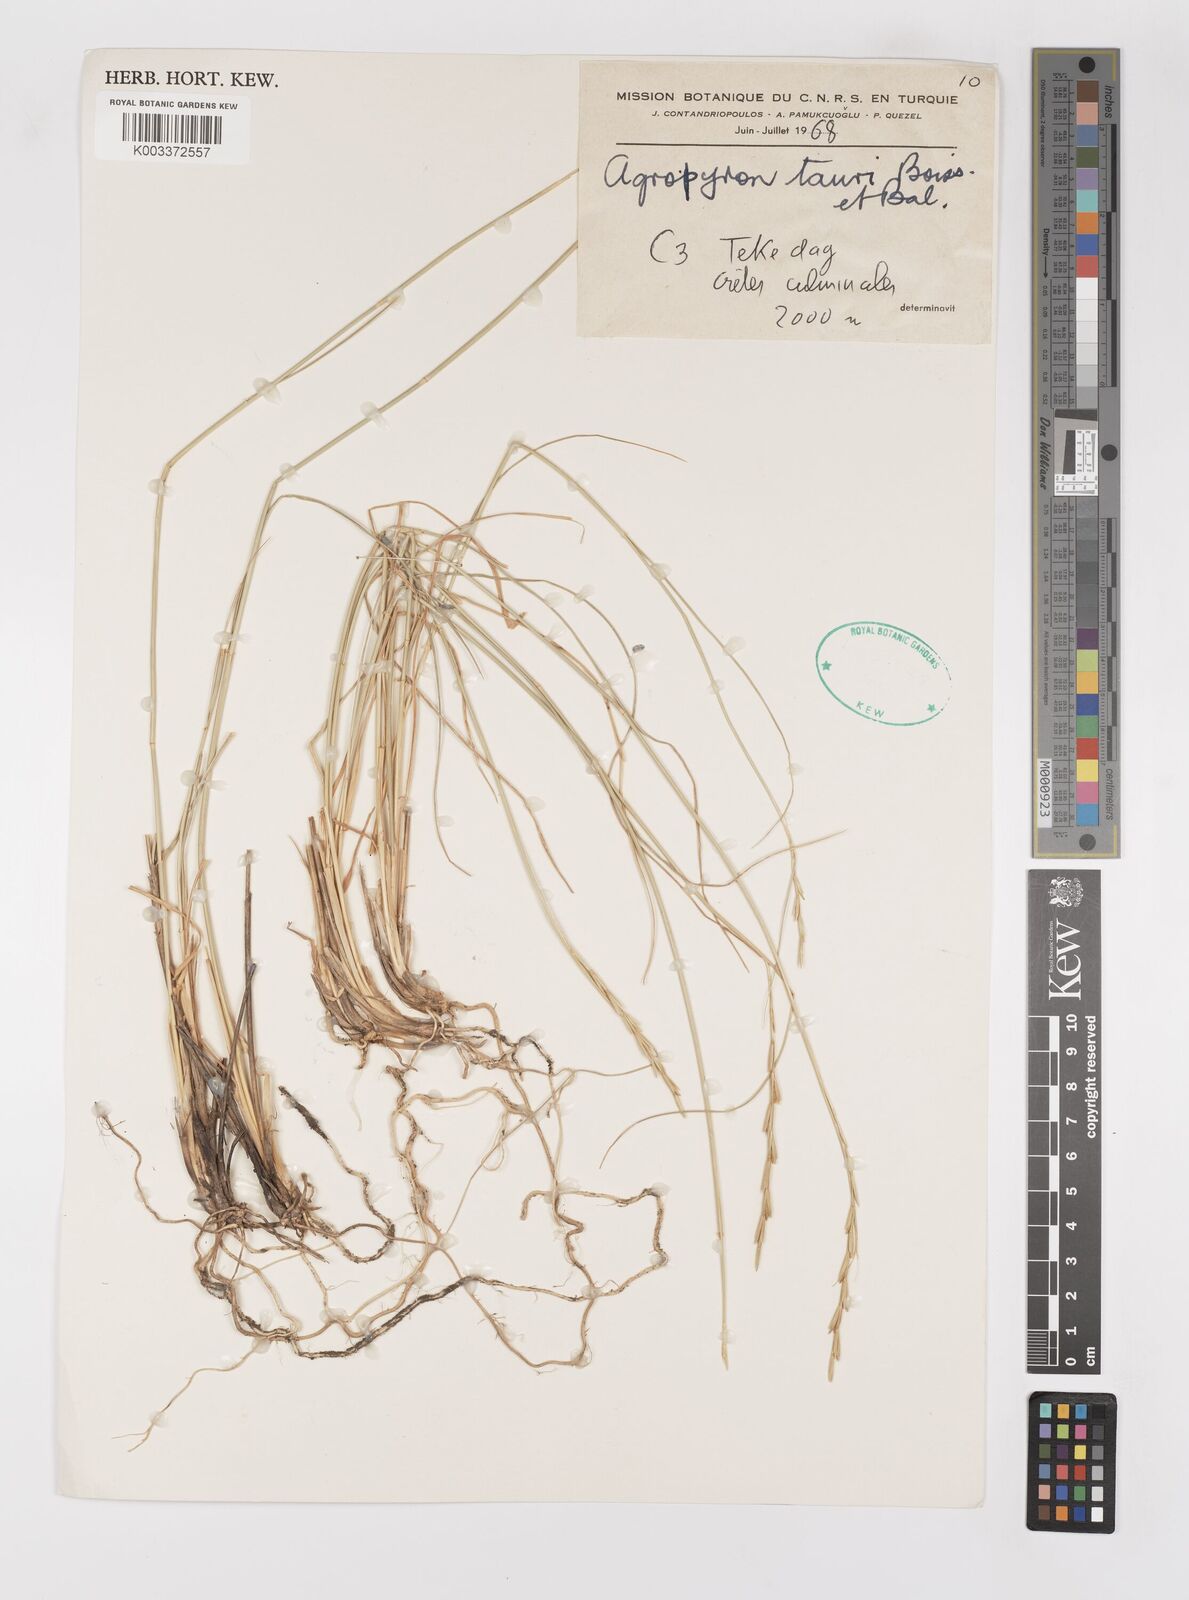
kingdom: Plantae
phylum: Tracheophyta
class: Liliopsida
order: Poales
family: Poaceae
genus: Pseudoroegneria
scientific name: Pseudoroegneria tauri
